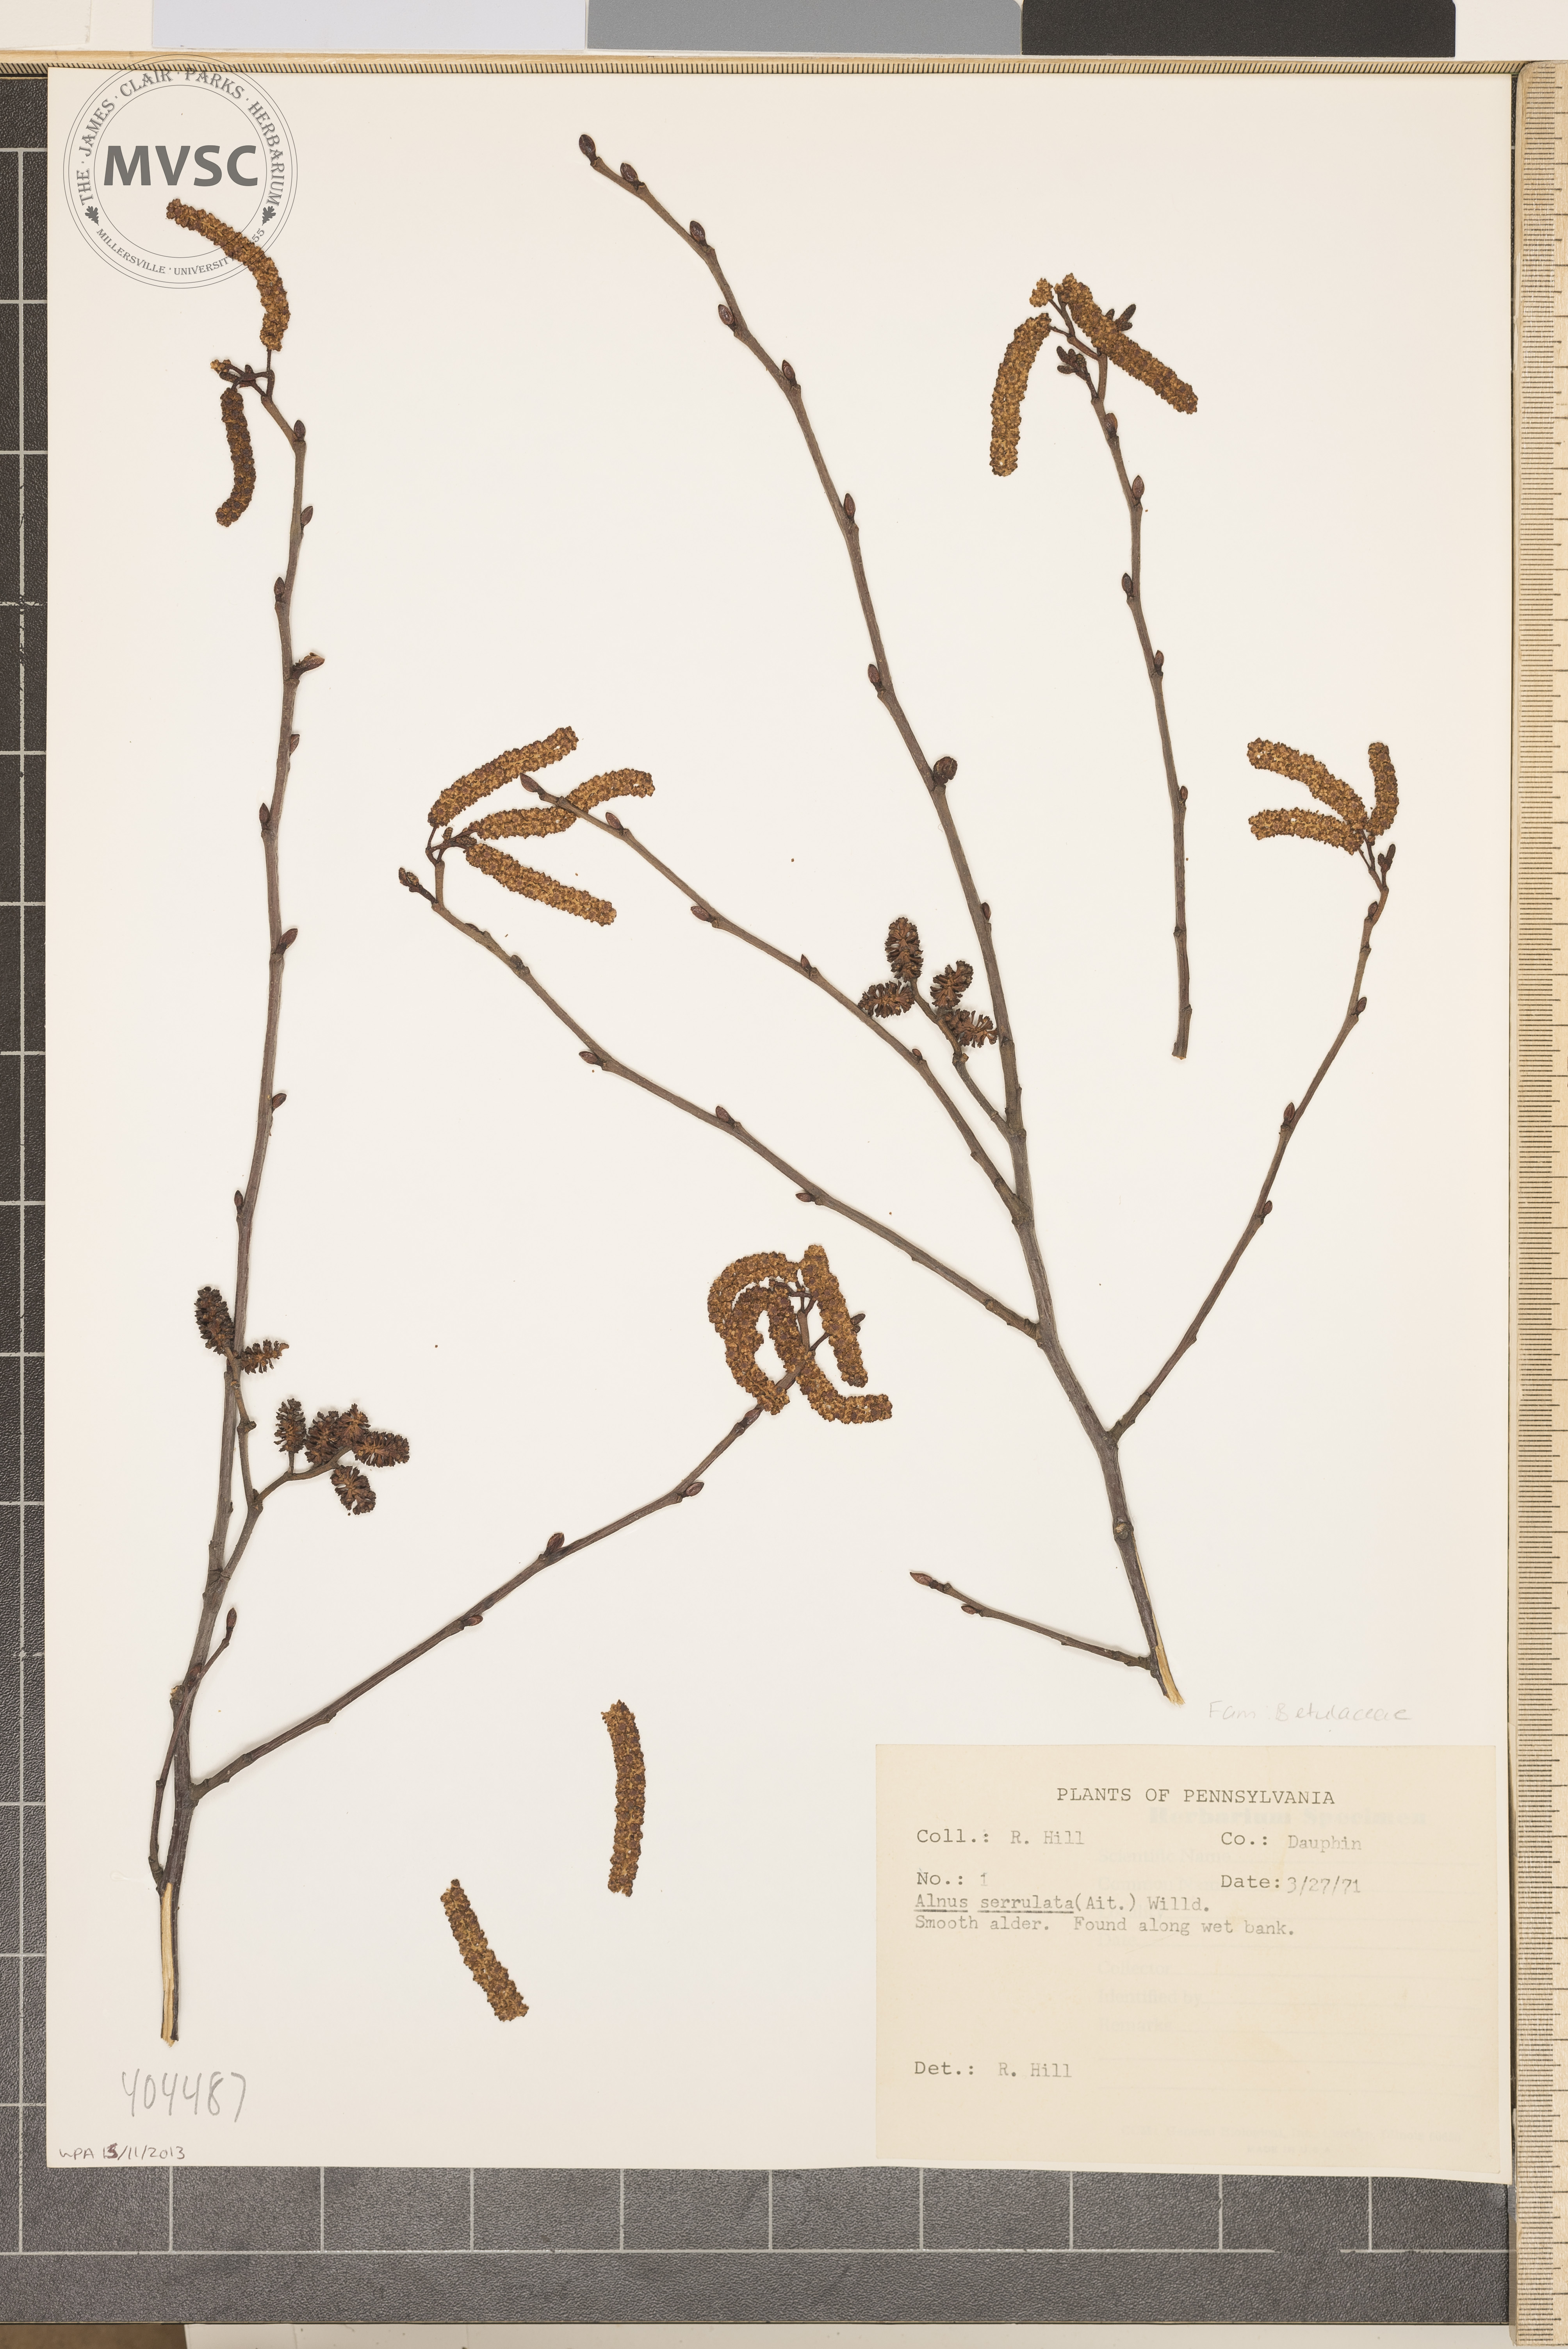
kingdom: Plantae
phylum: Tracheophyta
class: Magnoliopsida
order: Fagales
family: Betulaceae
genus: Alnus
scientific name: Alnus serrulata
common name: Hazel alder
